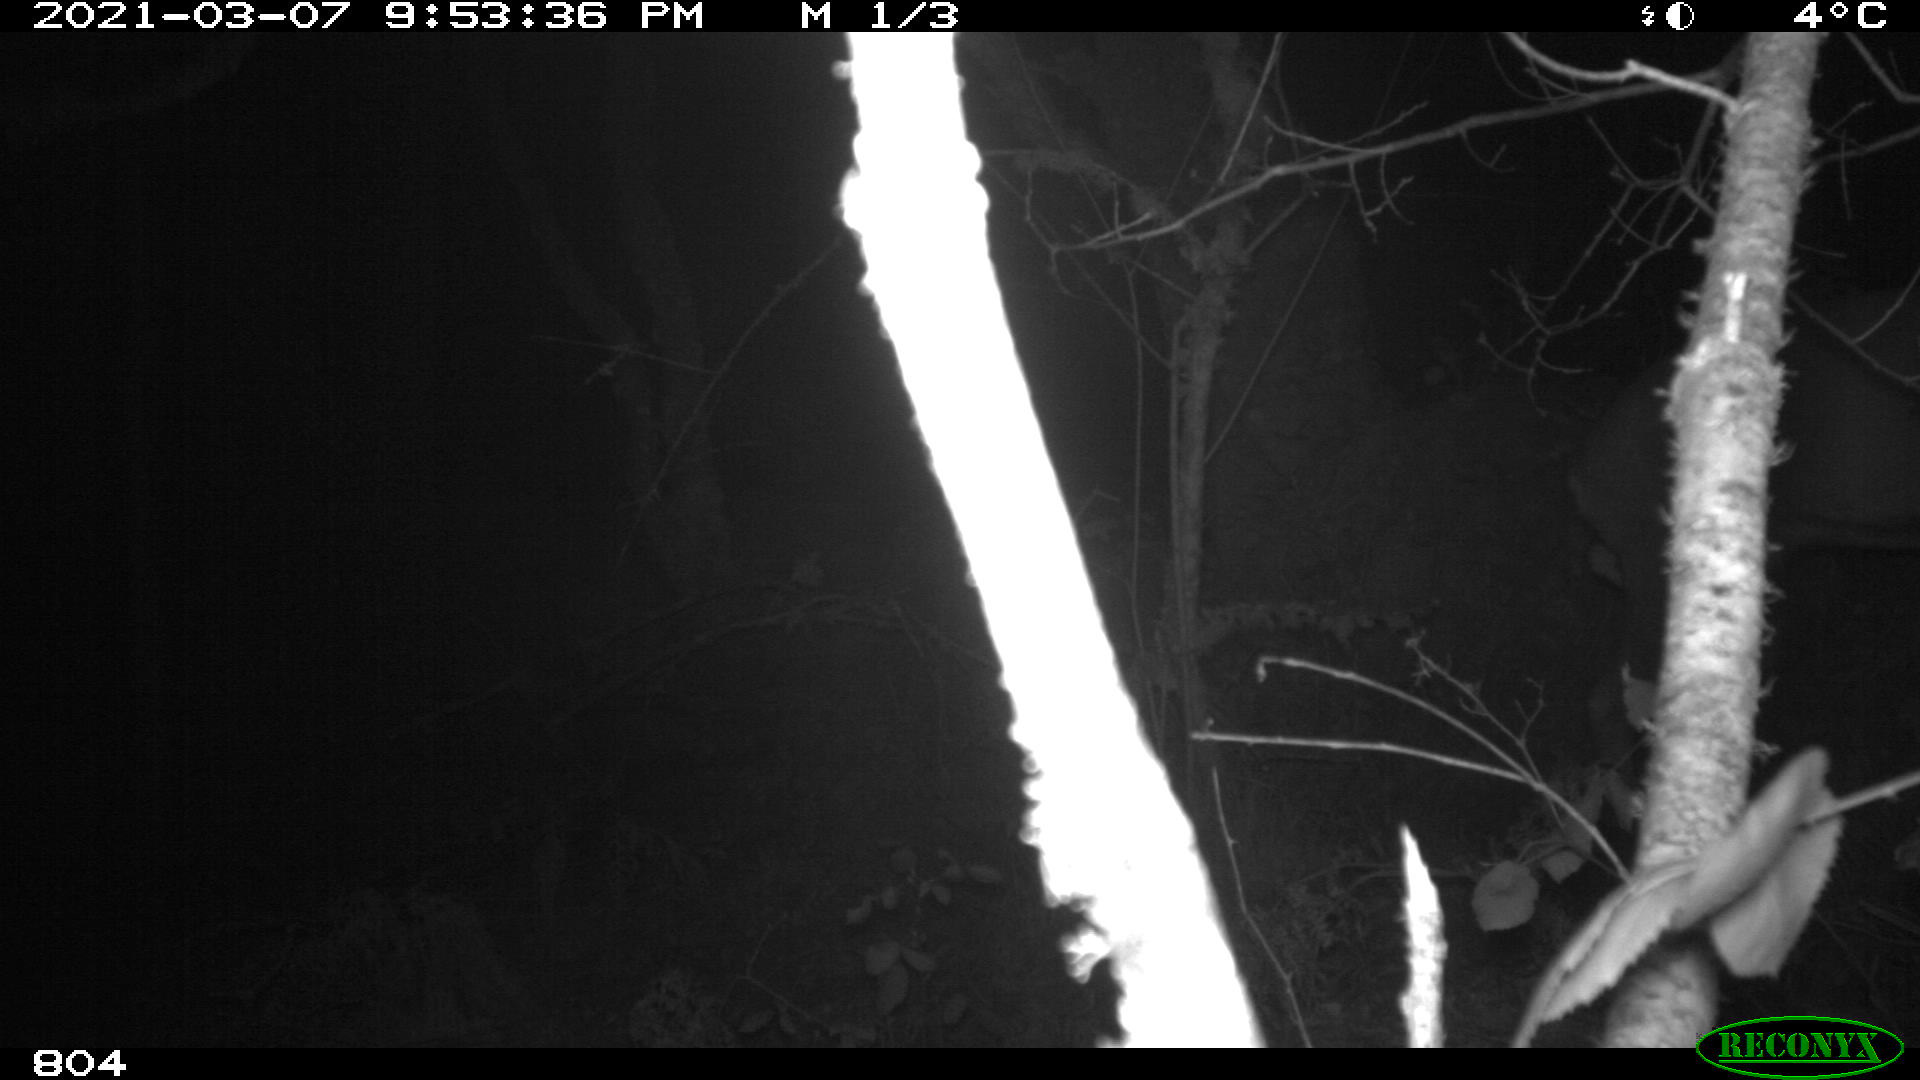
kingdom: Animalia
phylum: Chordata
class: Mammalia
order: Artiodactyla
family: Cervidae
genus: Capreolus
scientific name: Capreolus capreolus
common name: Western roe deer
